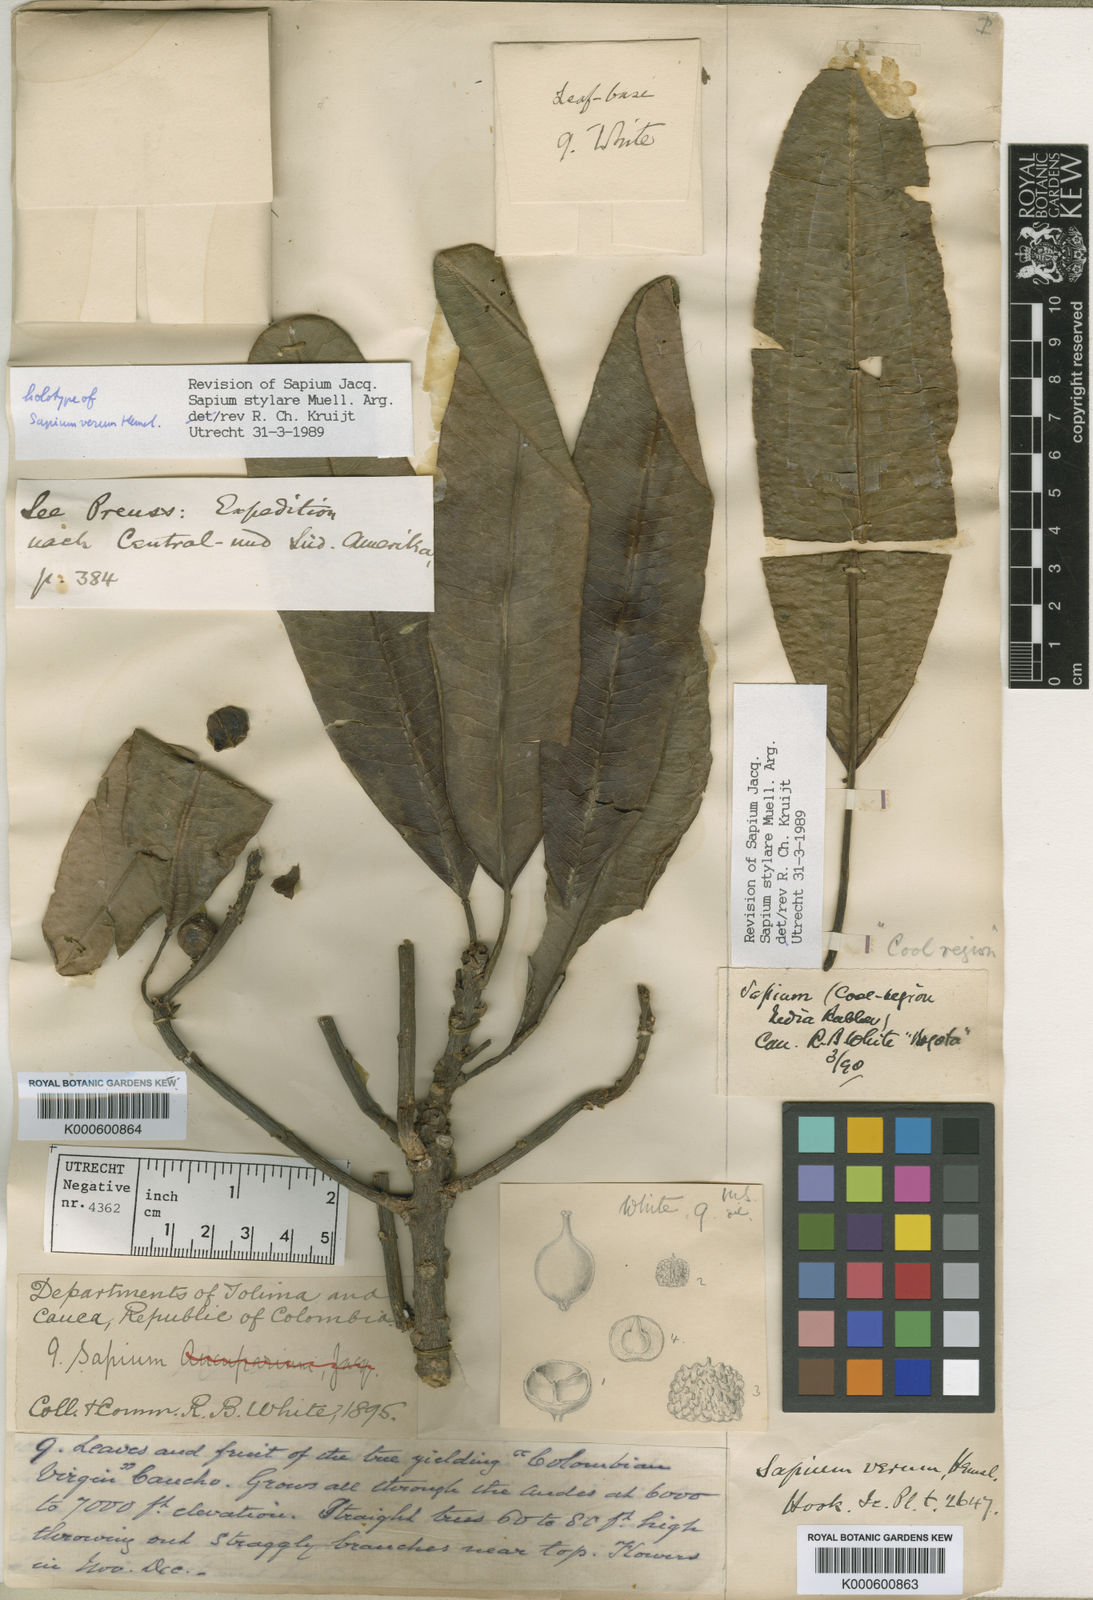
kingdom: Plantae
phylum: Tracheophyta
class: Magnoliopsida
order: Malpighiales
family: Euphorbiaceae
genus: Sapium
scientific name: Sapium stylare
